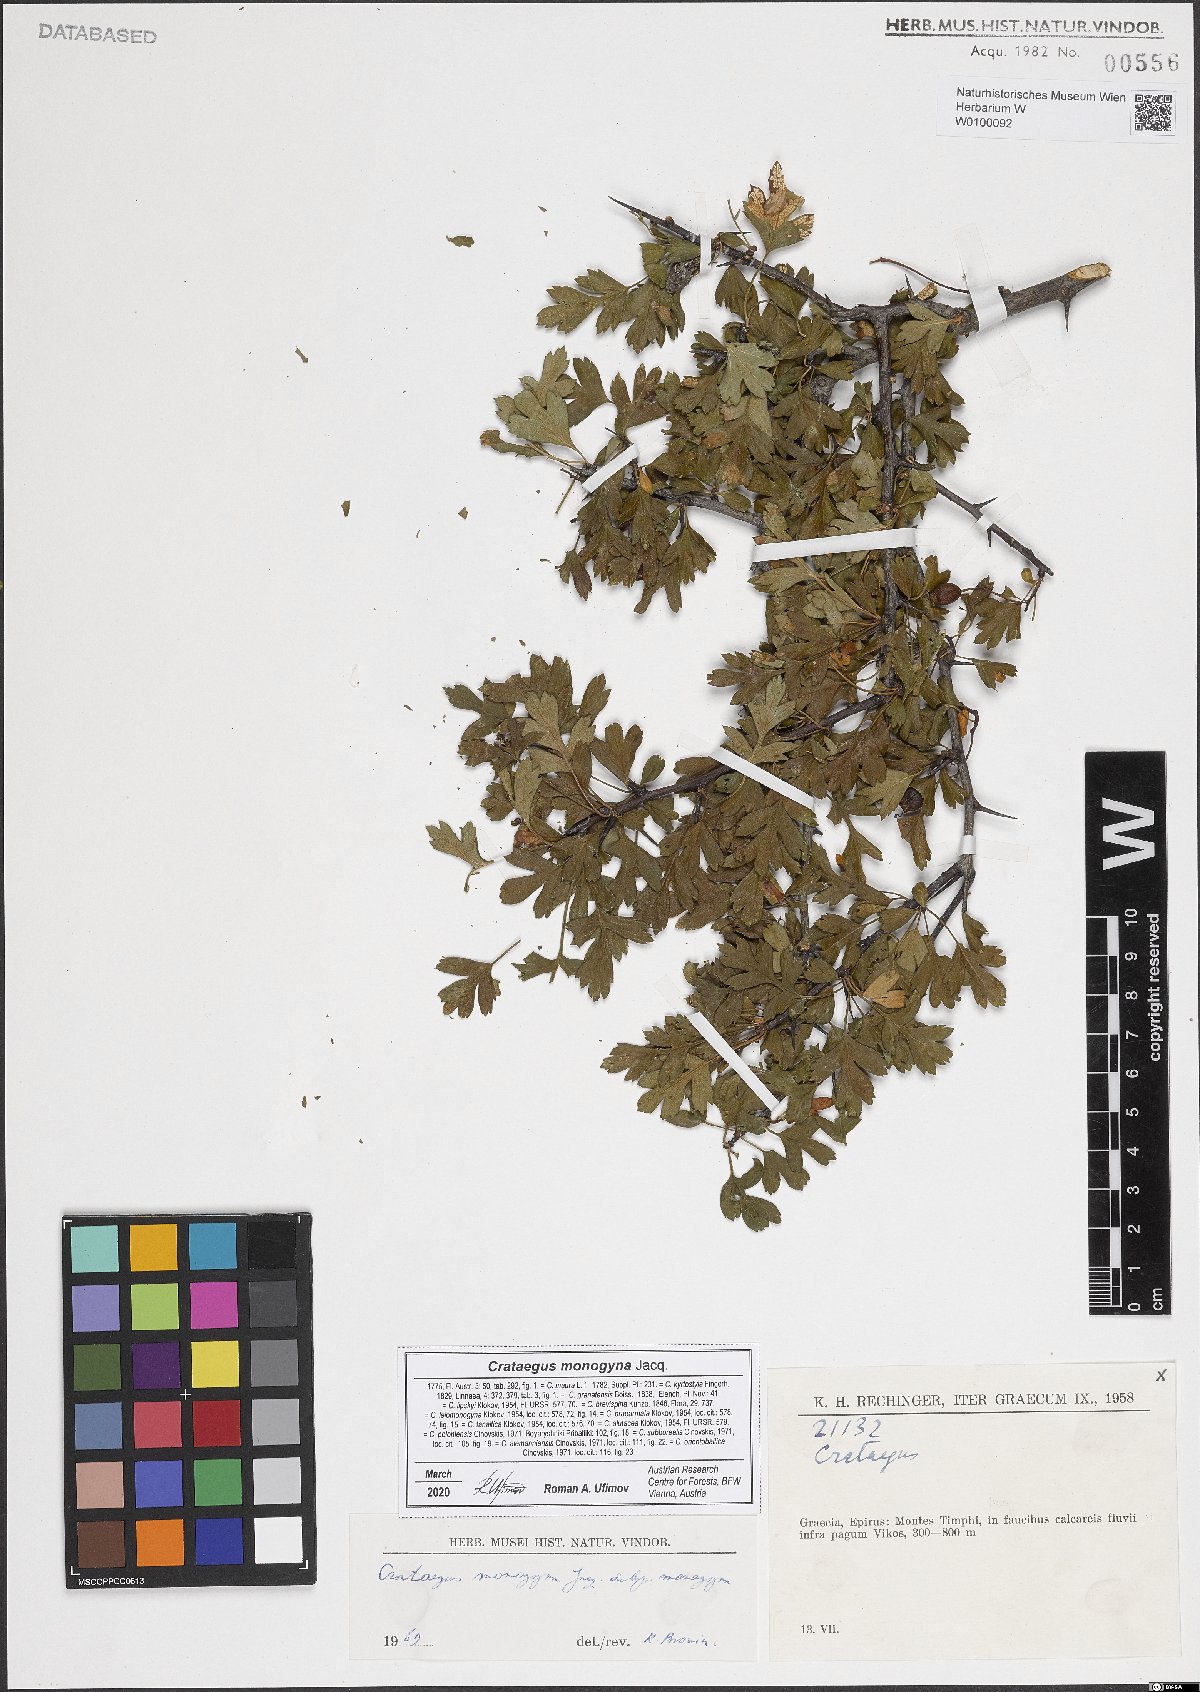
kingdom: Plantae
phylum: Tracheophyta
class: Magnoliopsida
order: Rosales
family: Rosaceae
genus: Crataegus
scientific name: Crataegus monogyna
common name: Hawthorn
